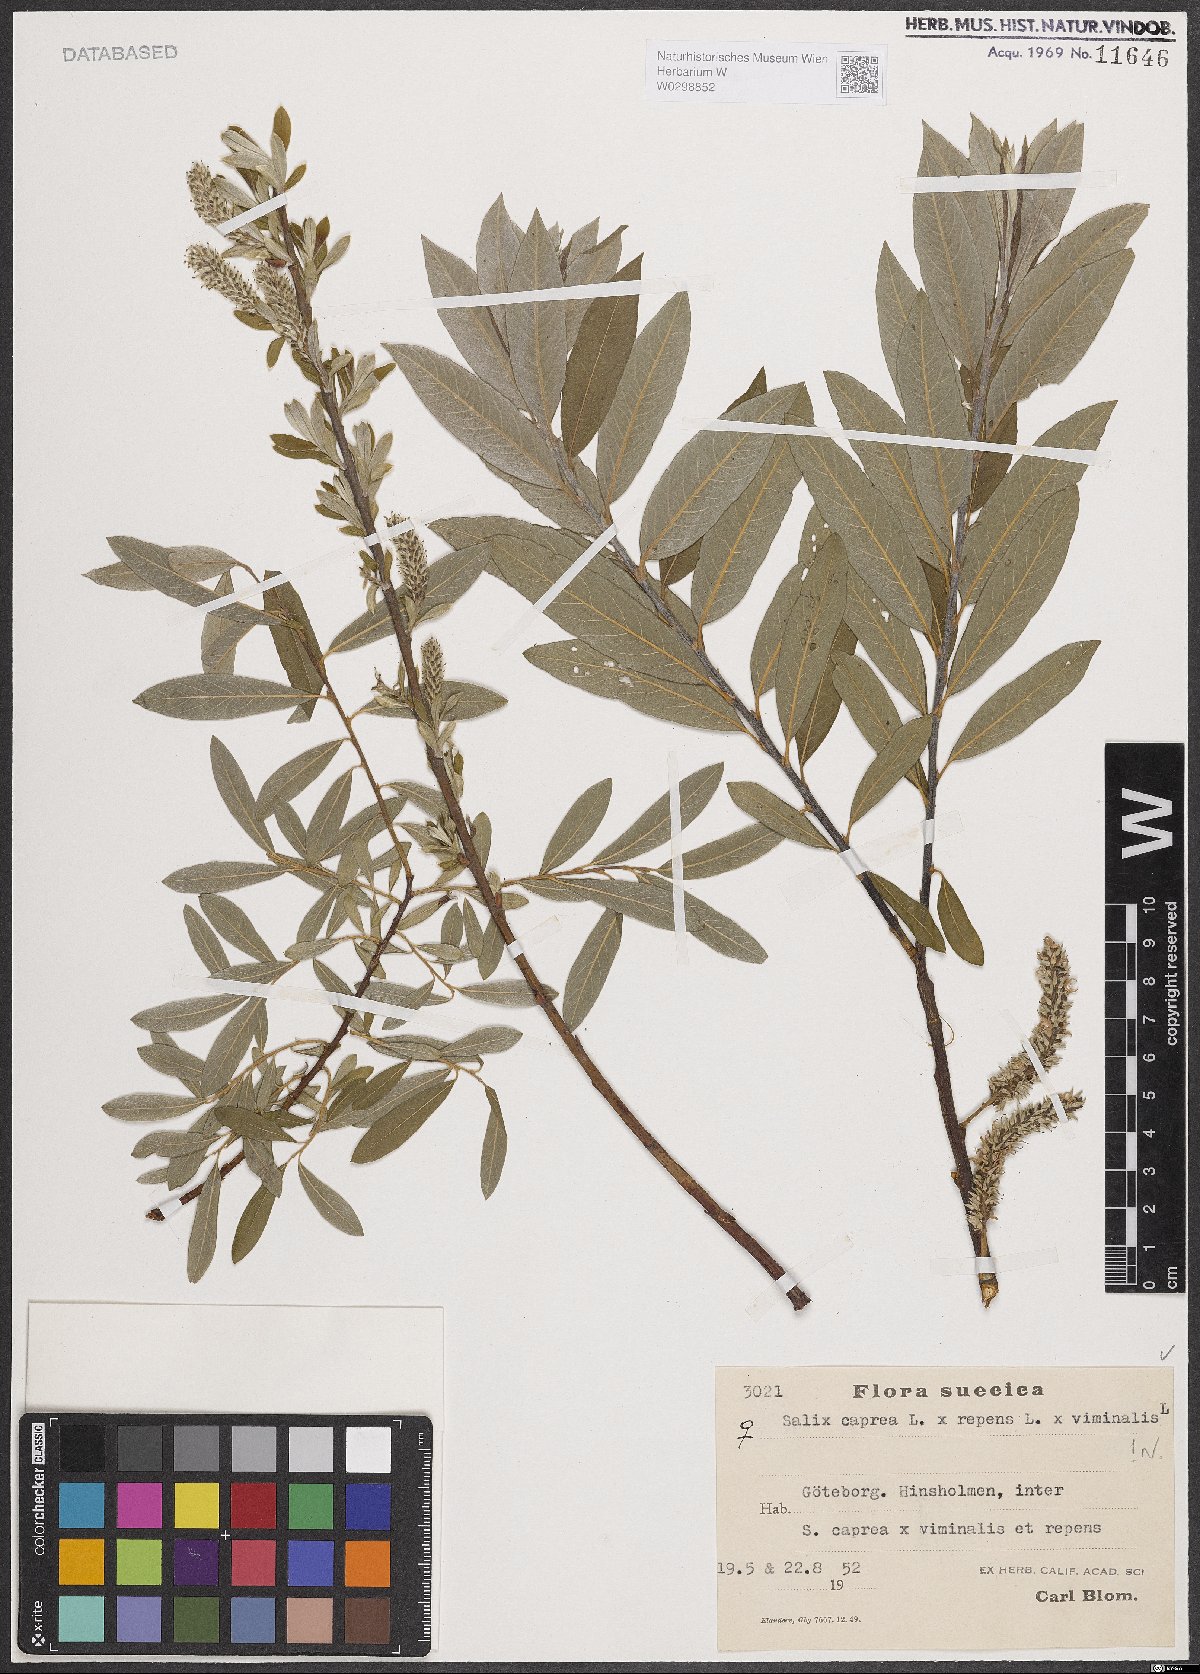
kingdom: Plantae
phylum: Tracheophyta
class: Magnoliopsida
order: Malpighiales
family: Salicaceae
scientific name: Salicaceae
